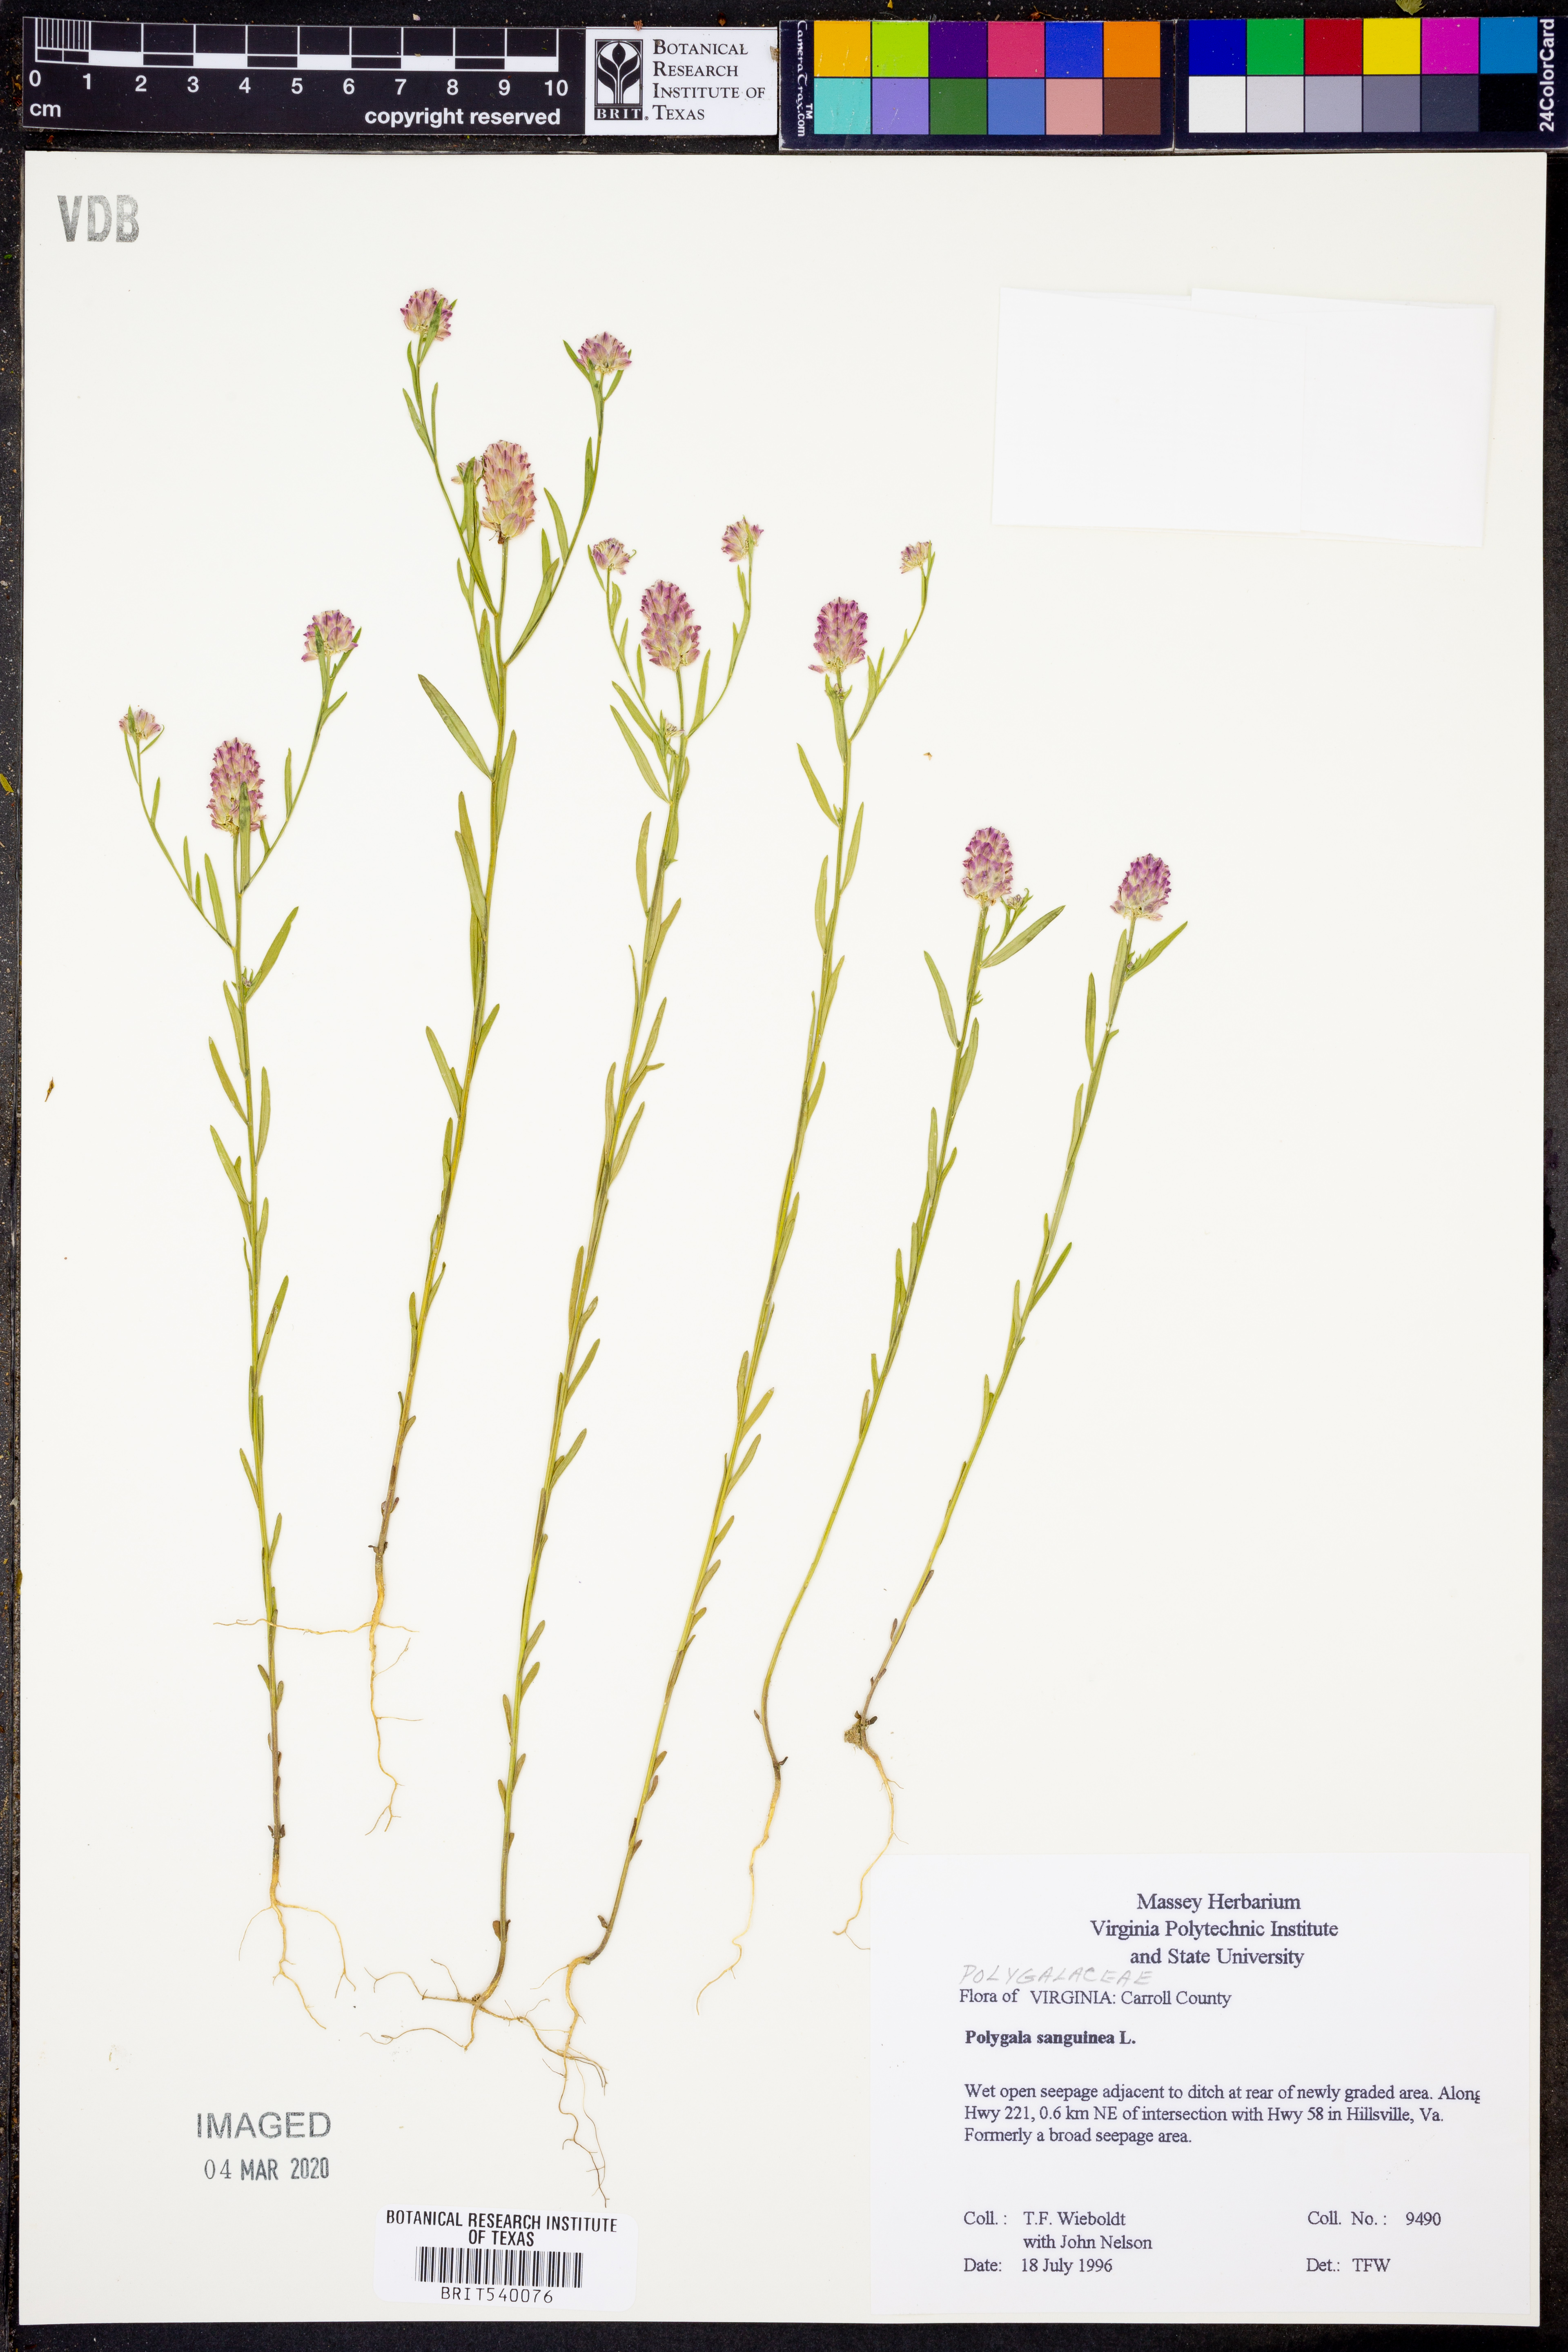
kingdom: Plantae
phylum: Tracheophyta
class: Magnoliopsida
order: Fabales
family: Polygalaceae
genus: Polygala
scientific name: Polygala sanguinea
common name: Blood milkwort
